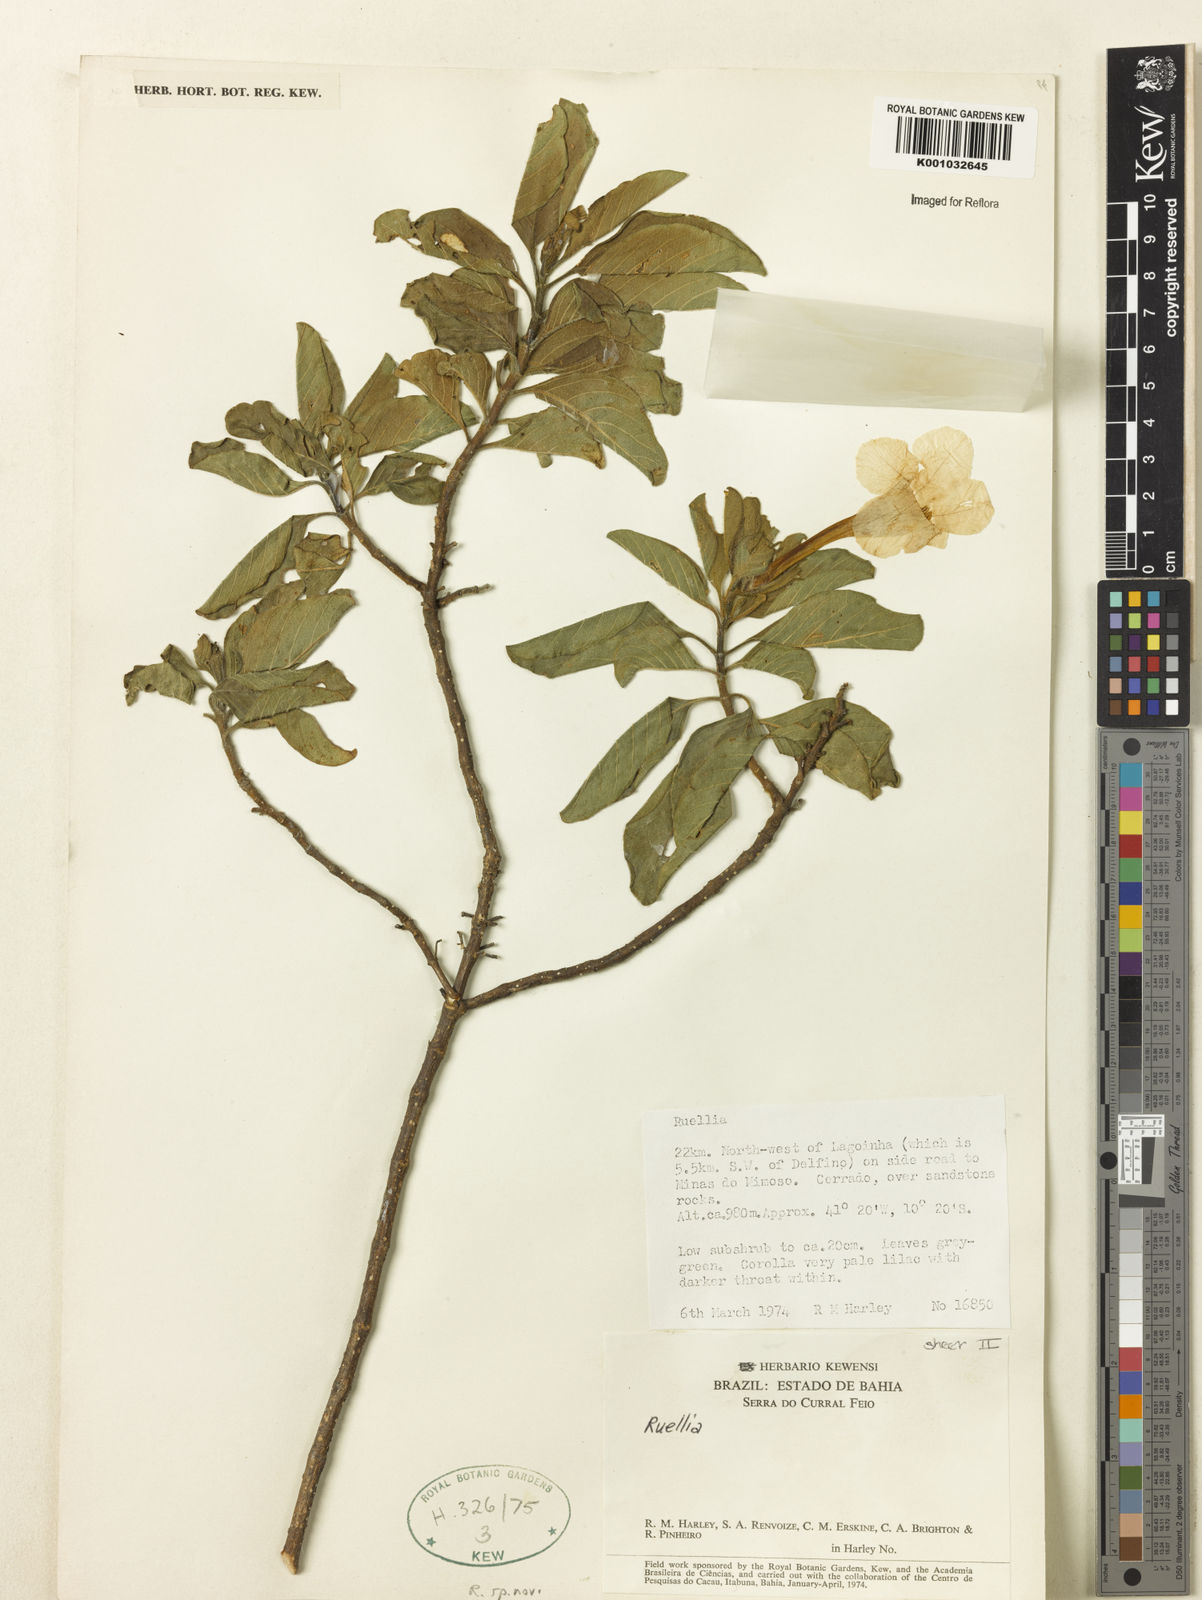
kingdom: Plantae
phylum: Tracheophyta
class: Magnoliopsida
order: Lamiales
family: Acanthaceae
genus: Ruellia
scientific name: Ruellia
